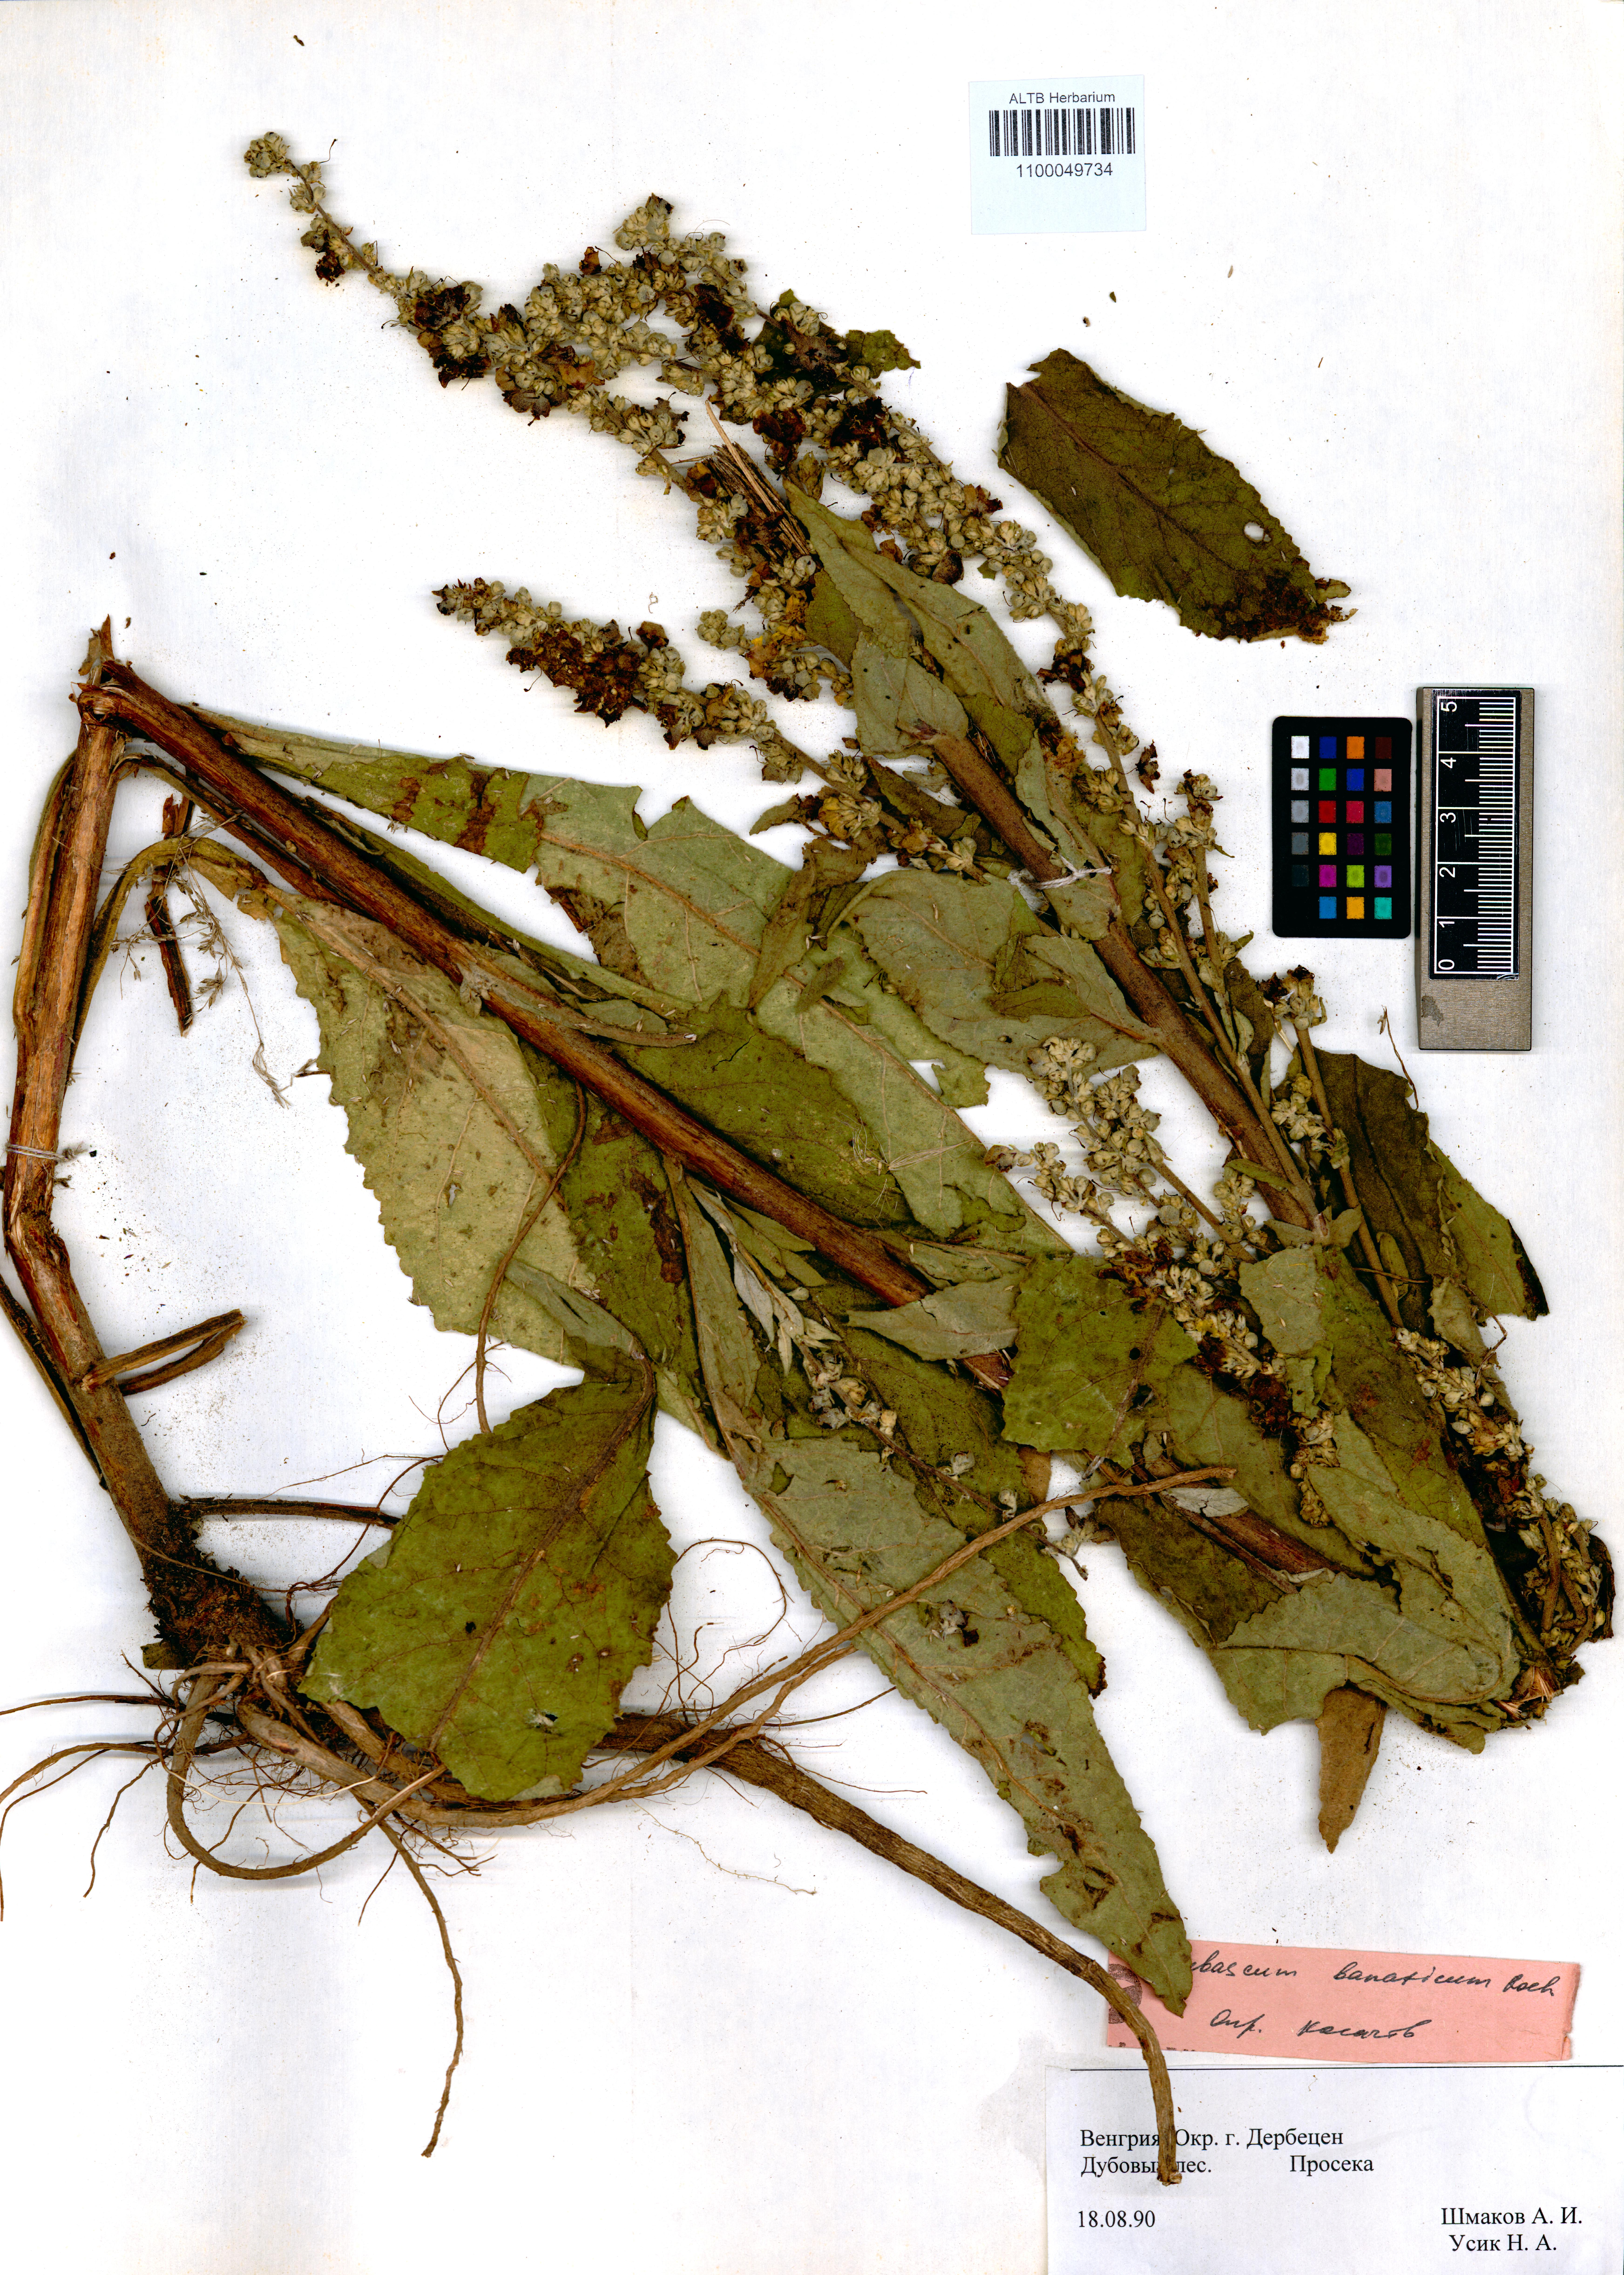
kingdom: Plantae
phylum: Tracheophyta
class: Magnoliopsida
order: Lamiales
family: Scrophulariaceae
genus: Verbascum
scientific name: Verbascum banaticum
